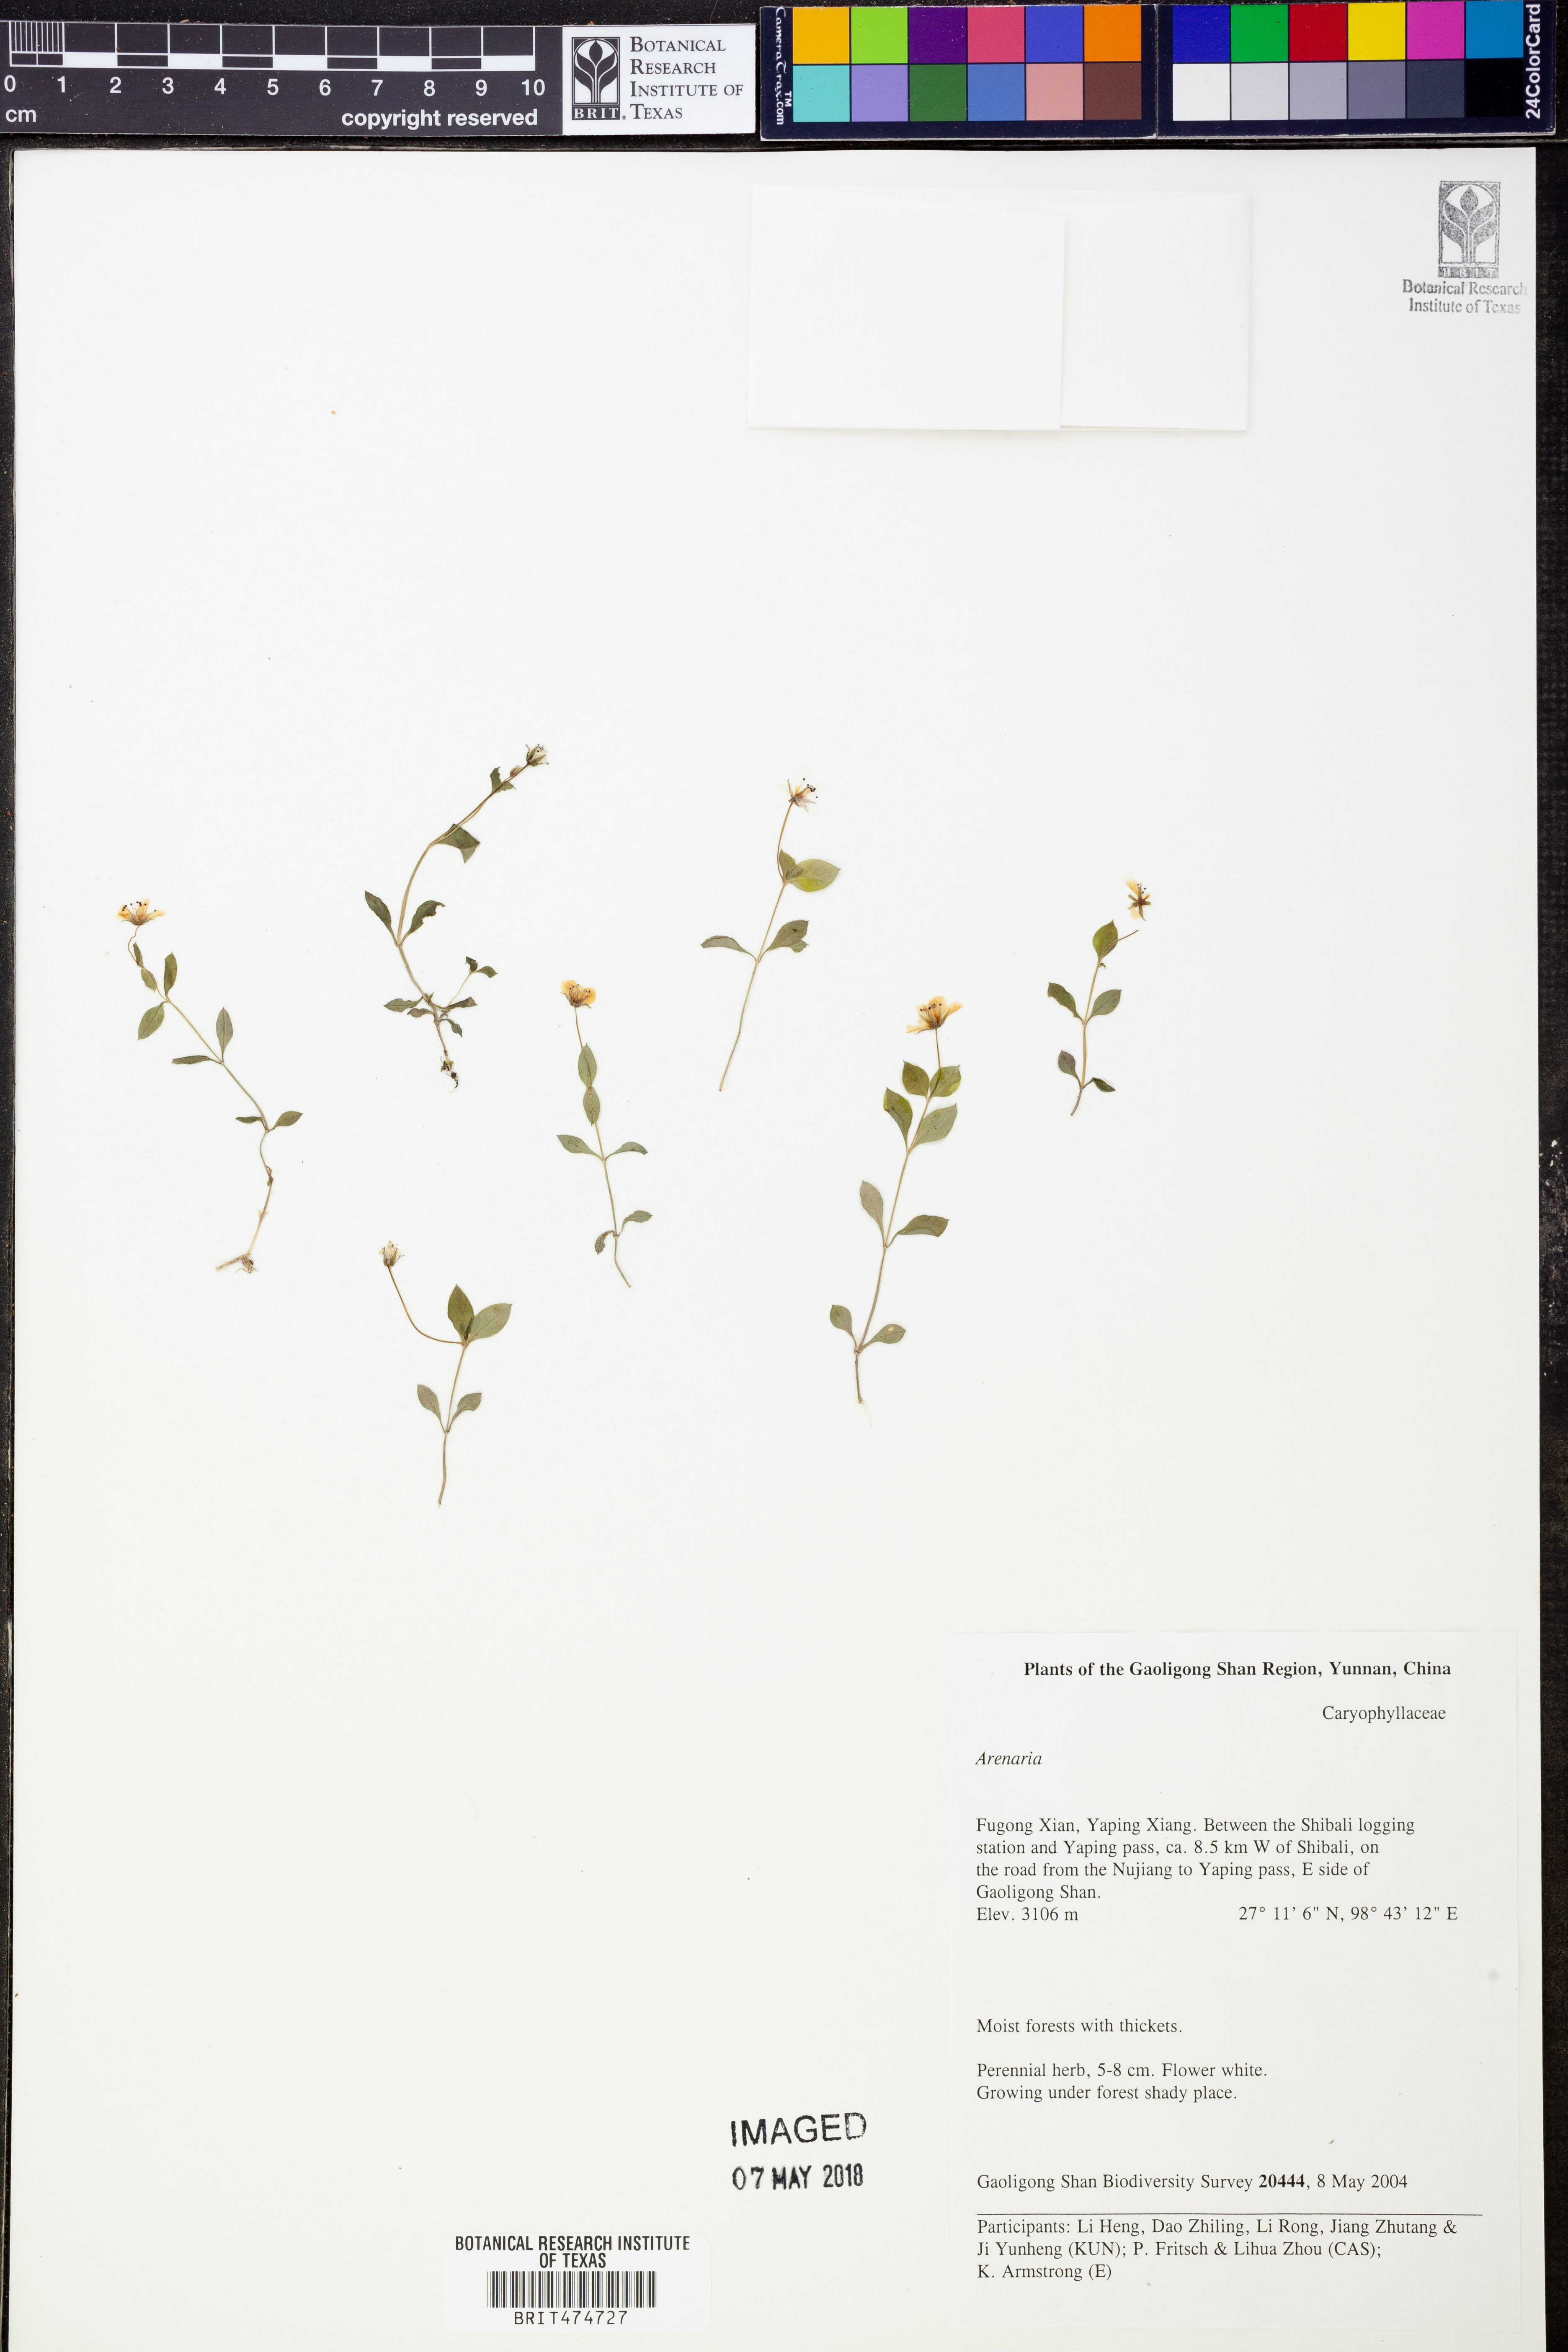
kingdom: Plantae
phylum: Tracheophyta
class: Magnoliopsida
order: Caryophyllales
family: Caryophyllaceae
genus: Arenaria
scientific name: Arenaria
